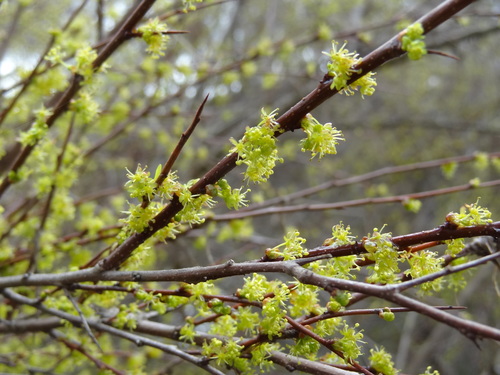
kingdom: Plantae
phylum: Tracheophyta
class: Magnoliopsida
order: Malpighiales
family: Phyllanthaceae
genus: Flueggea
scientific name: Flueggea tinctoria
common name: Tamujo
